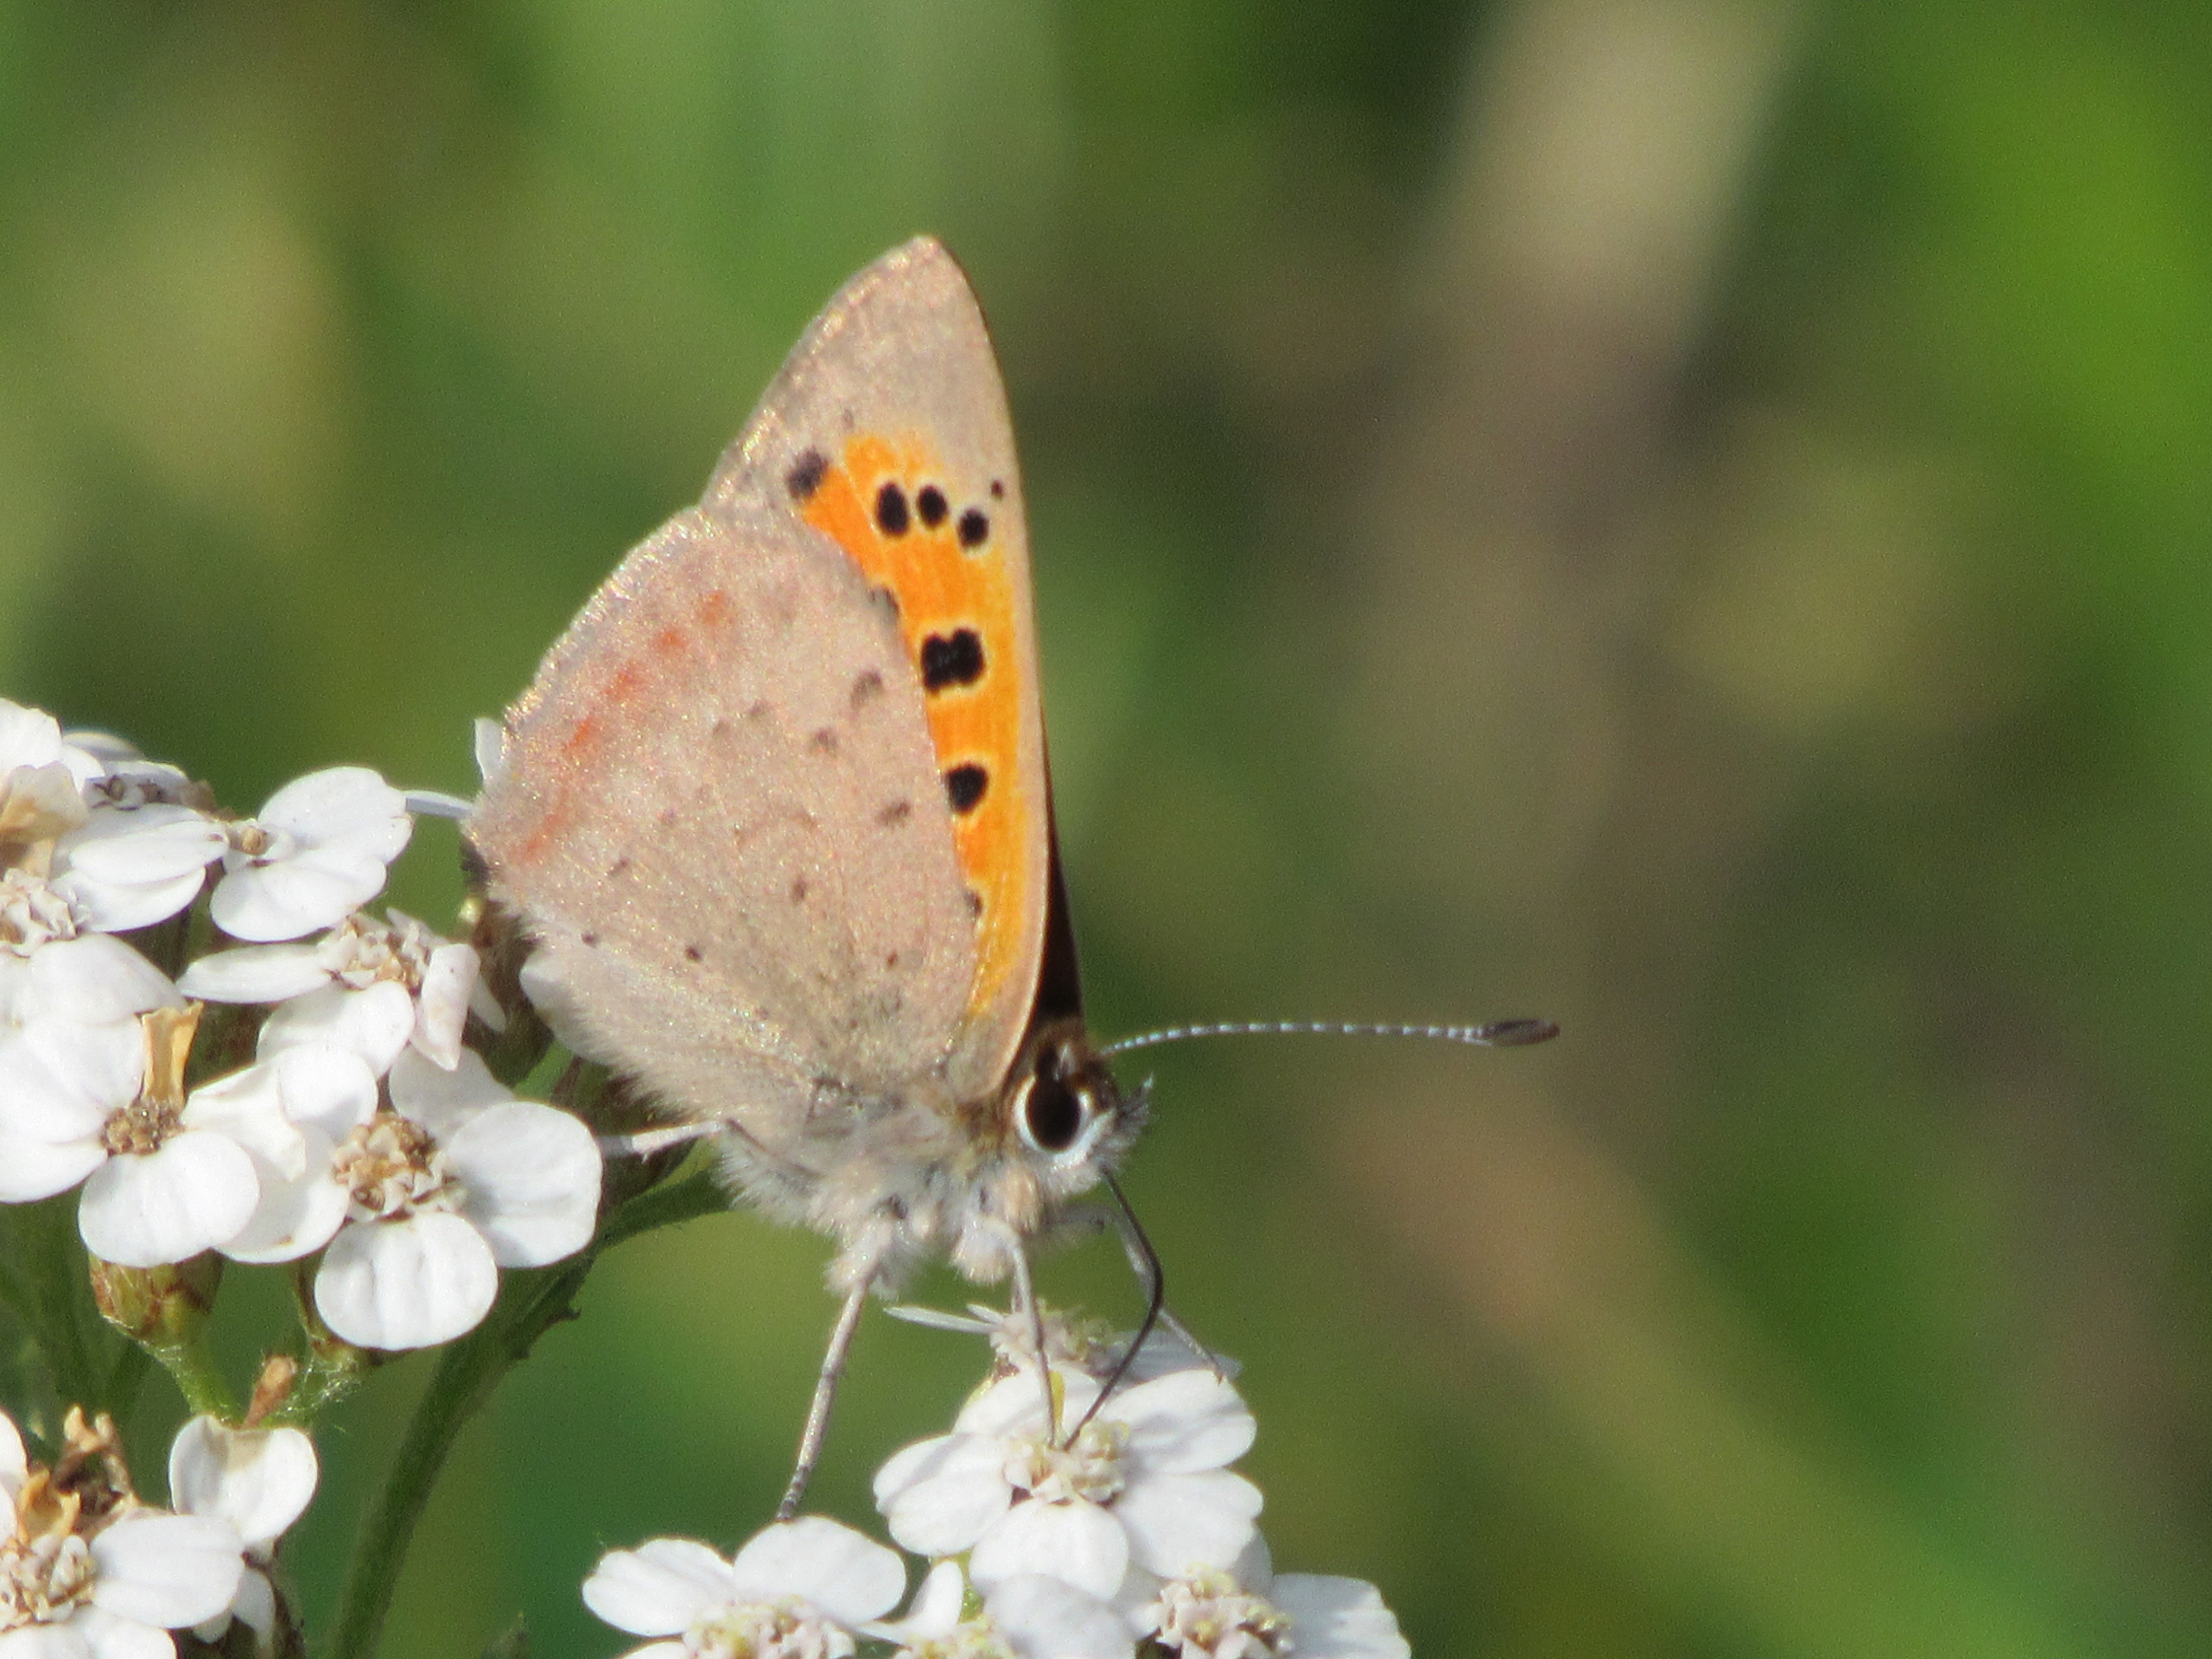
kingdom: Animalia
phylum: Arthropoda
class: Insecta
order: Lepidoptera
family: Lycaenidae
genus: Lycaena
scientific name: Lycaena phlaeas
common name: Lille ildfugl
